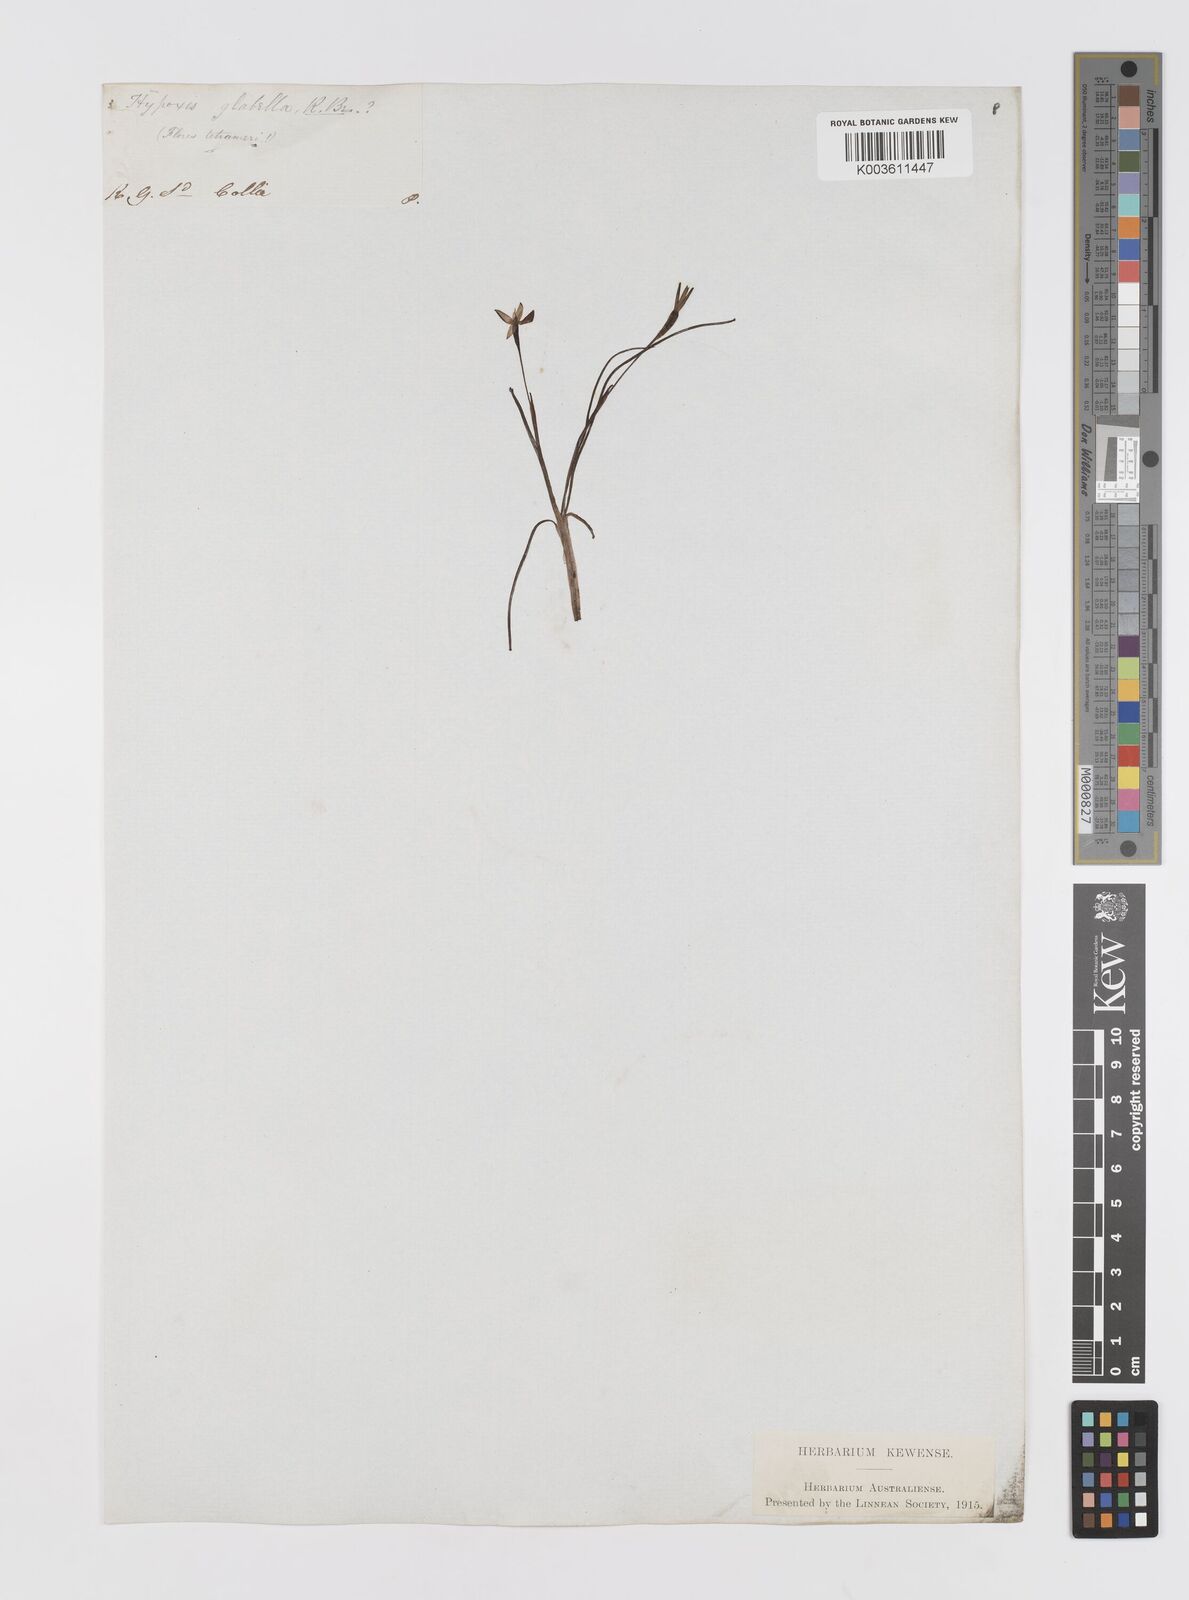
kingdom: Plantae
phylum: Tracheophyta
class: Liliopsida
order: Asparagales
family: Hypoxidaceae
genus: Pauridia
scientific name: Pauridia glabella
